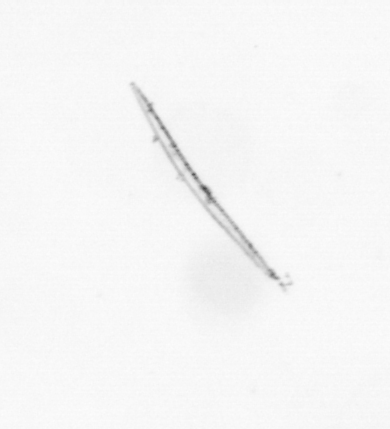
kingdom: Chromista
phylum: Ochrophyta
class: Bacillariophyceae
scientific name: Bacillariophyceae
